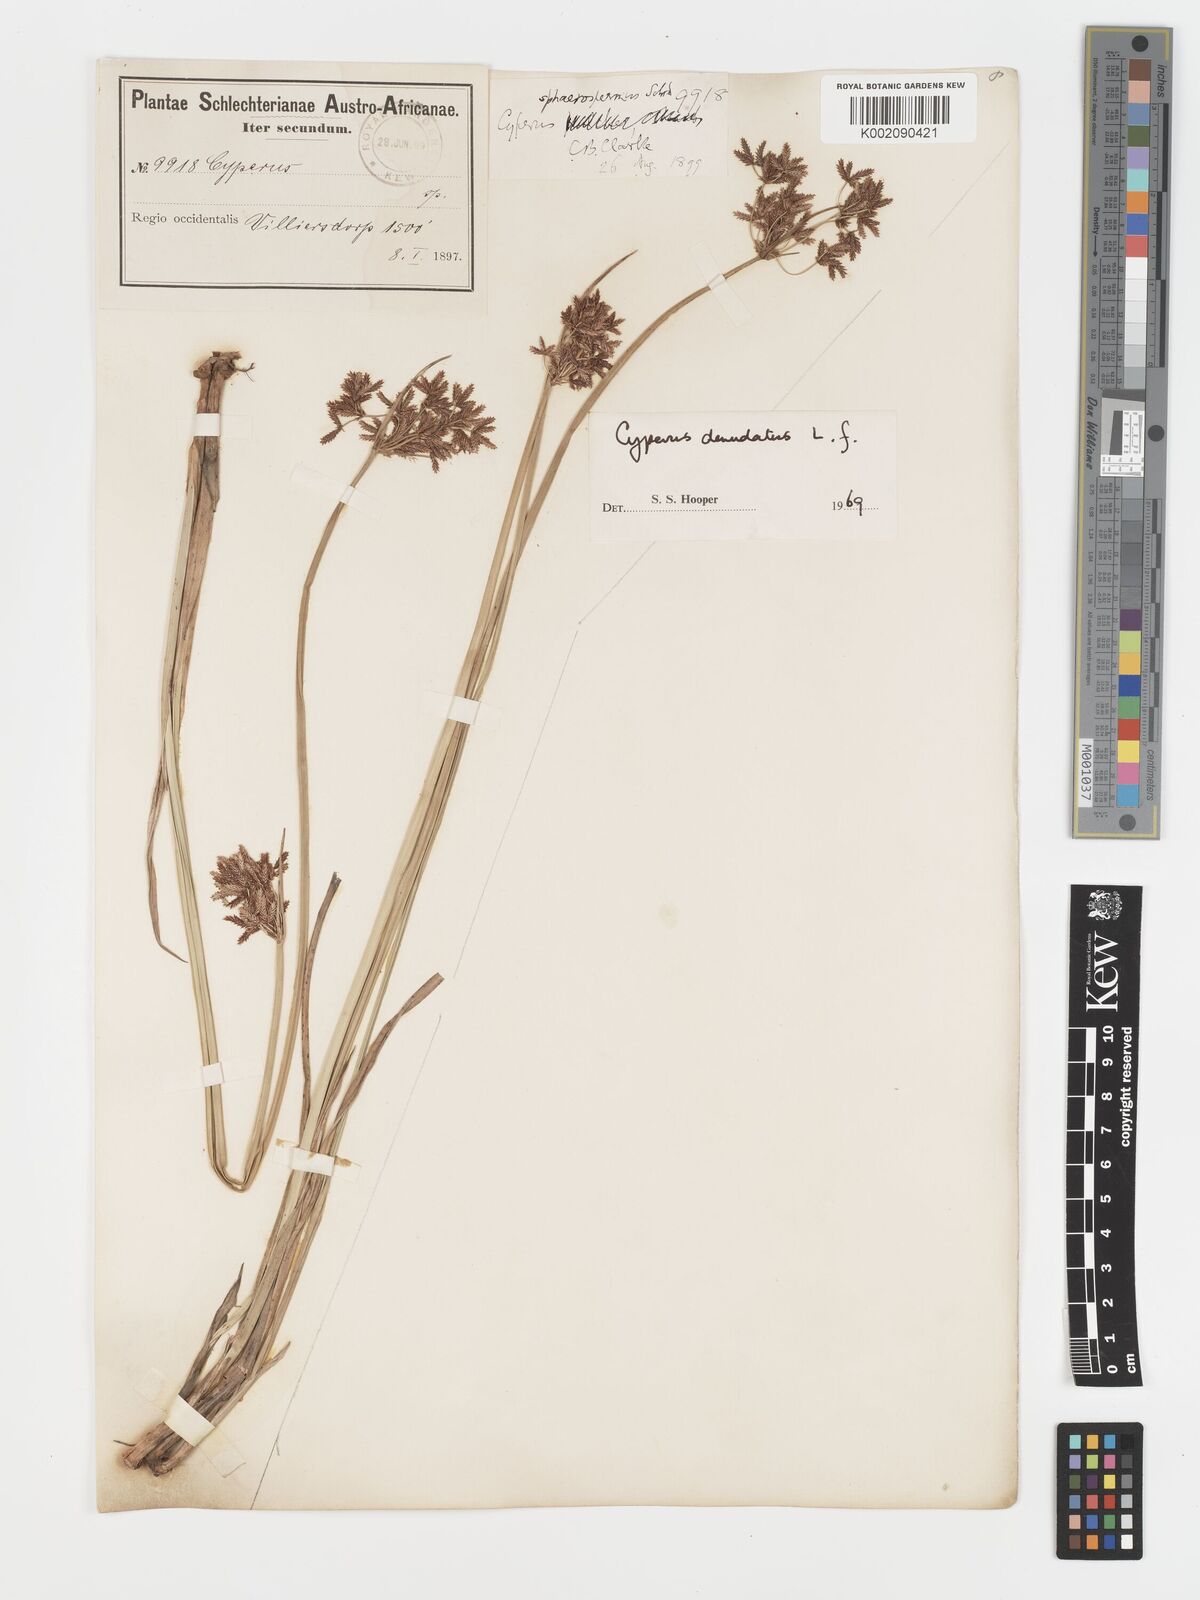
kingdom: Plantae
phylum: Tracheophyta
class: Liliopsida
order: Poales
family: Cyperaceae
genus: Cyperus
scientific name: Cyperus denudatus
